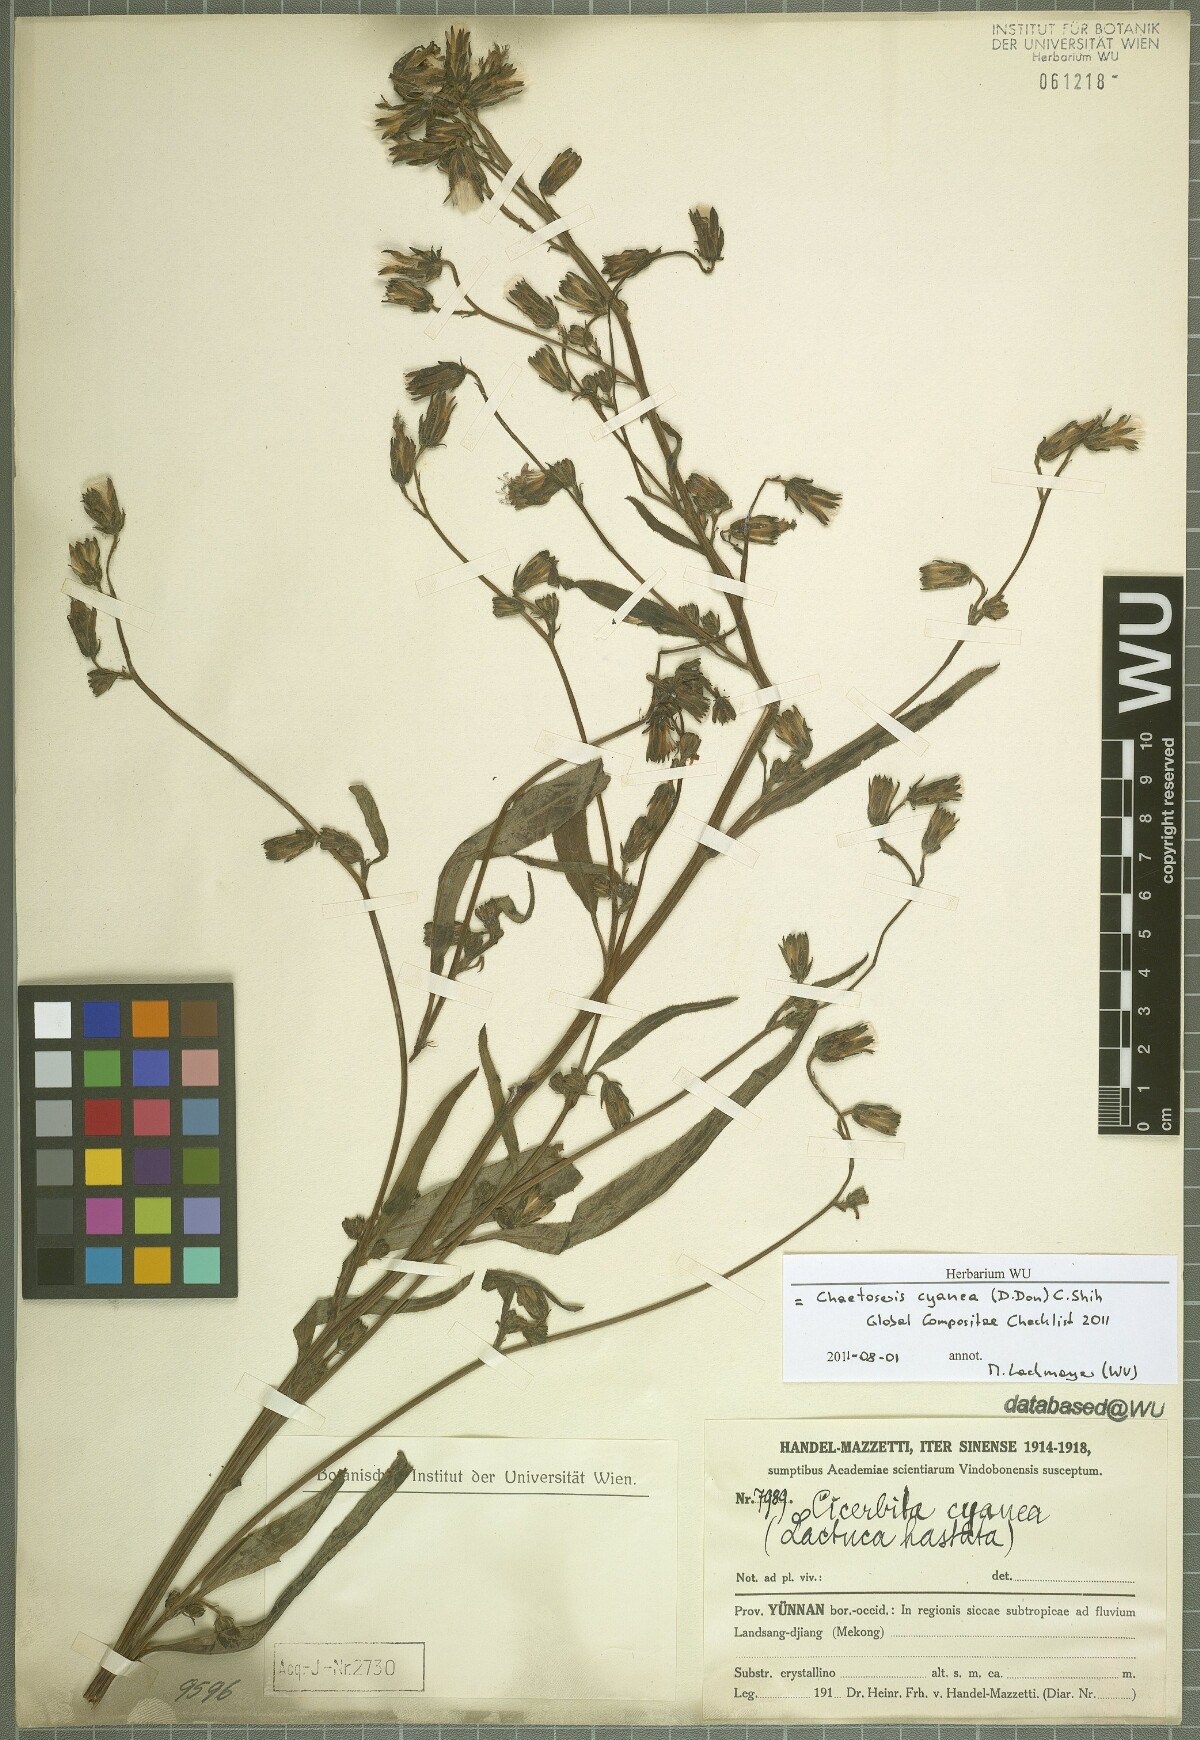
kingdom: Plantae
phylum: Tracheophyta
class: Magnoliopsida
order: Asterales
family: Asteraceae
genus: Melanoseris
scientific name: Melanoseris cyanea
